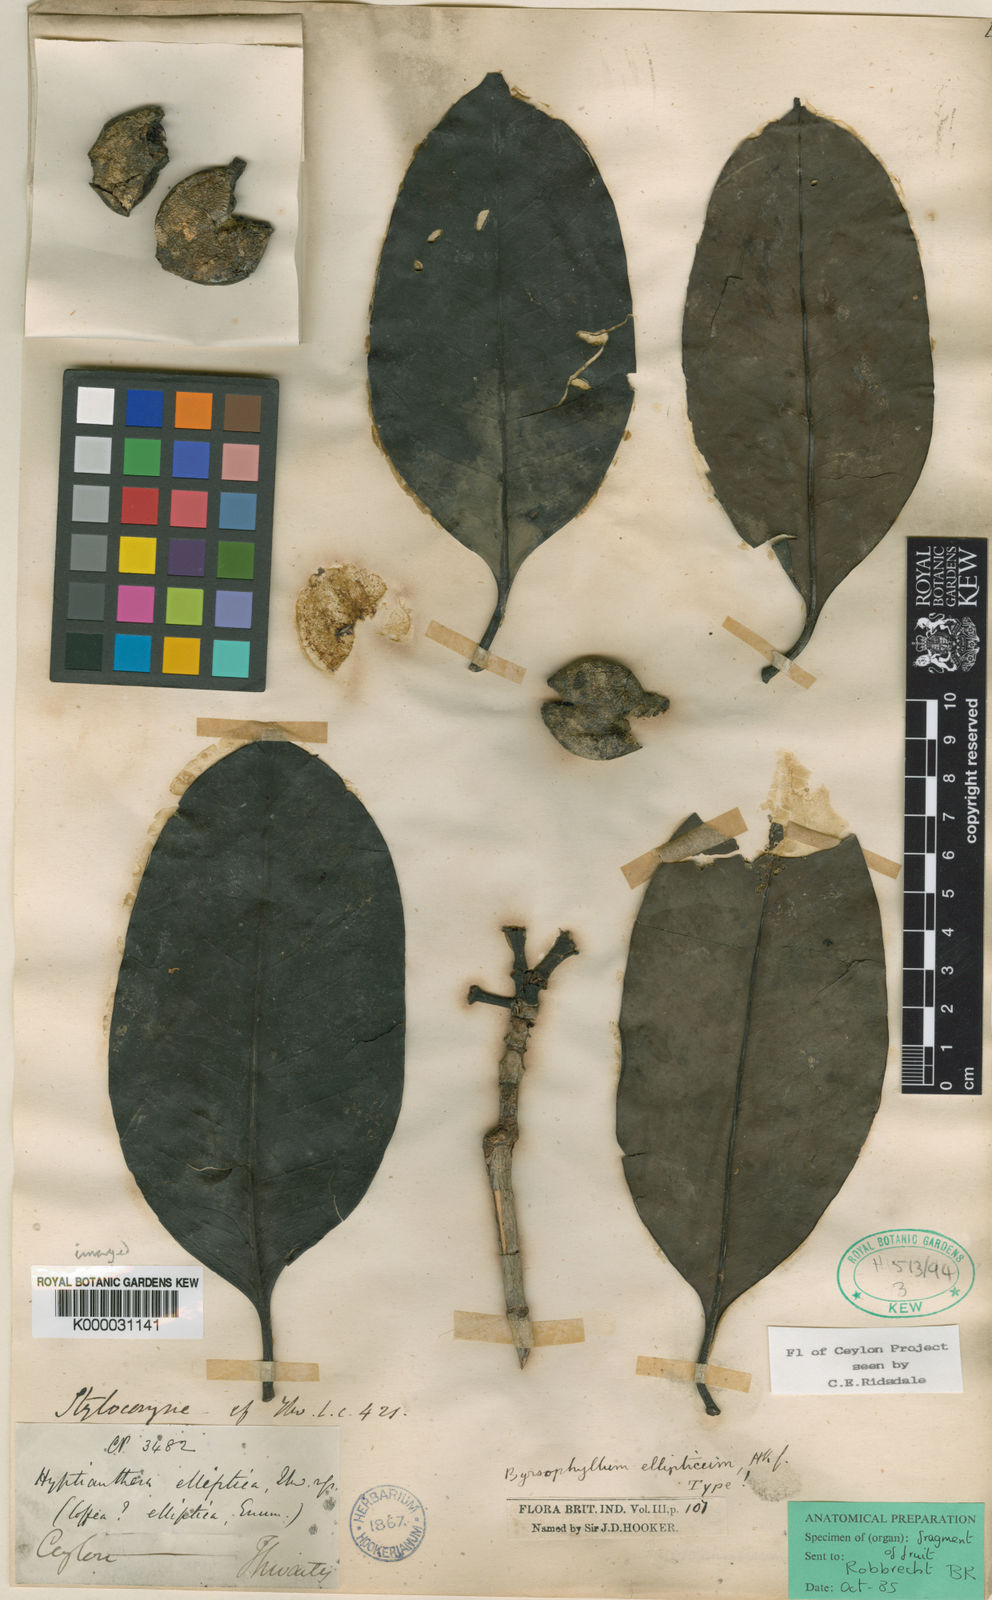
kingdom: Plantae
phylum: Tracheophyta
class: Magnoliopsida
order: Gentianales
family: Rubiaceae
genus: Byrsophyllum
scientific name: Byrsophyllum
